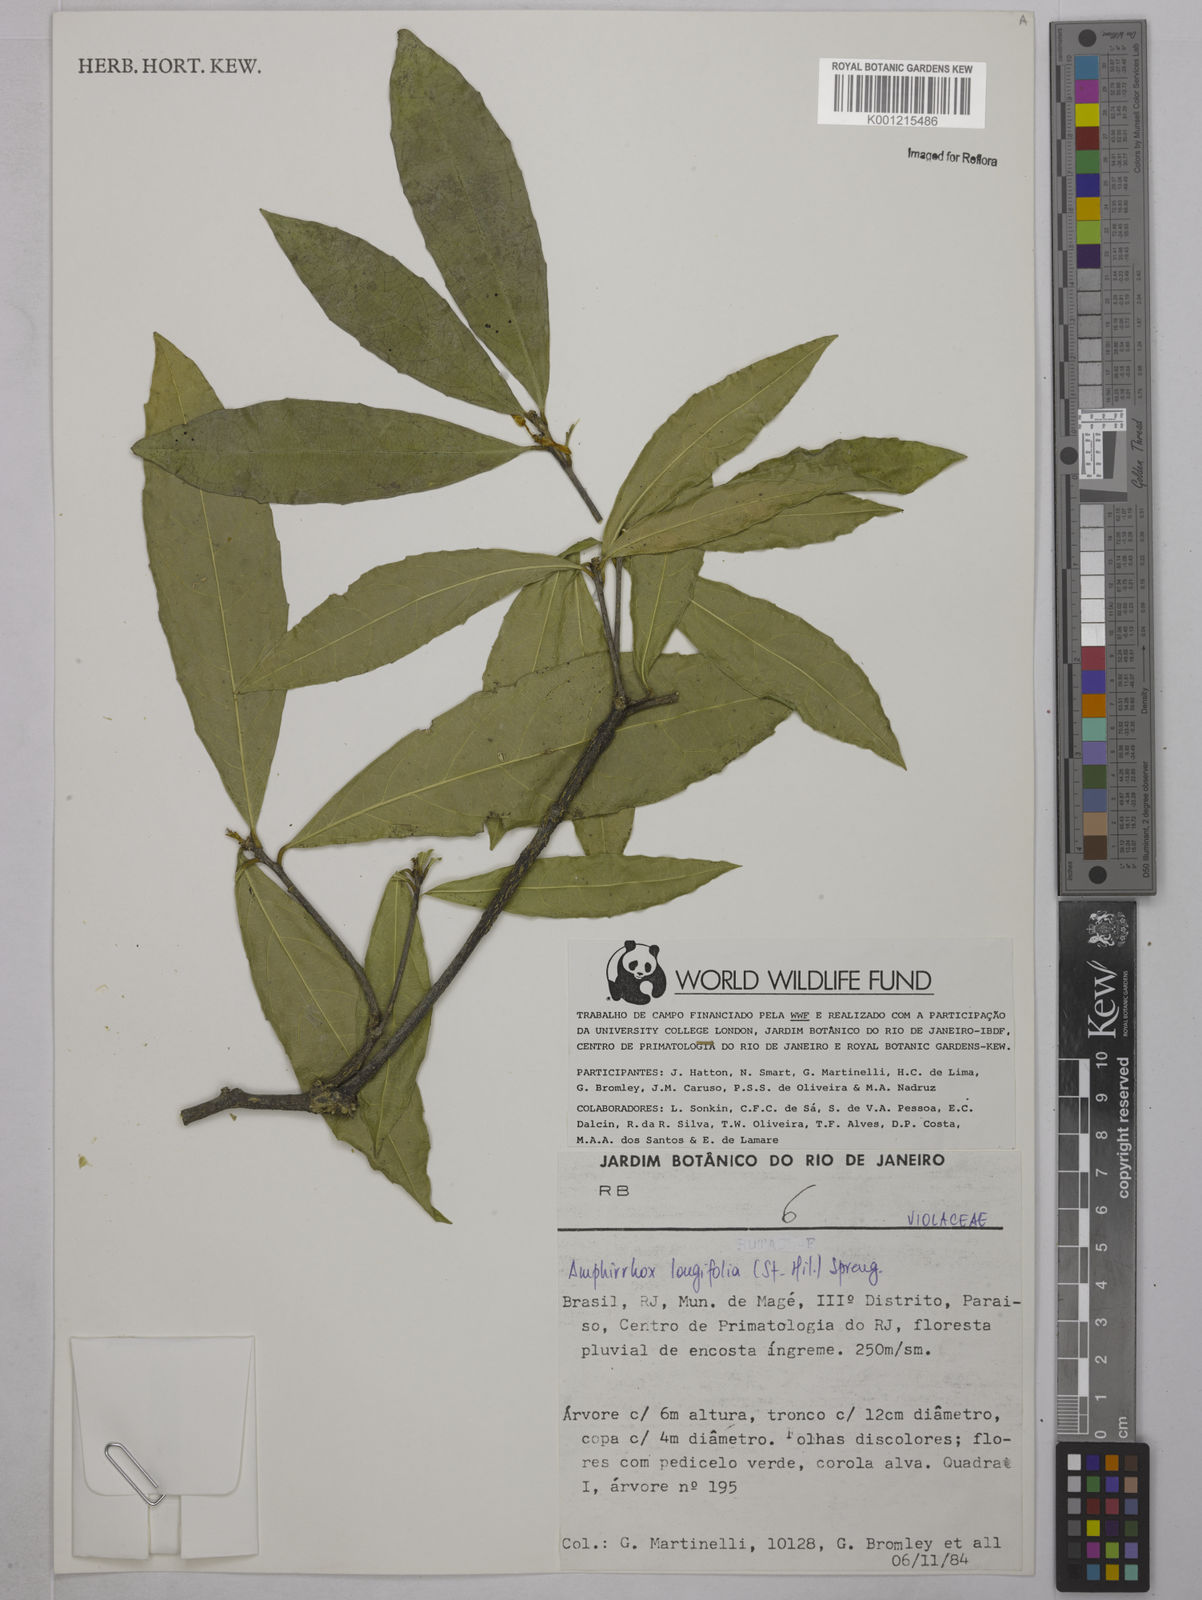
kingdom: Plantae
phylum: Tracheophyta
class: Magnoliopsida
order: Malpighiales
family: Violaceae
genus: Amphirrhox
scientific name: Amphirrhox longifolia
